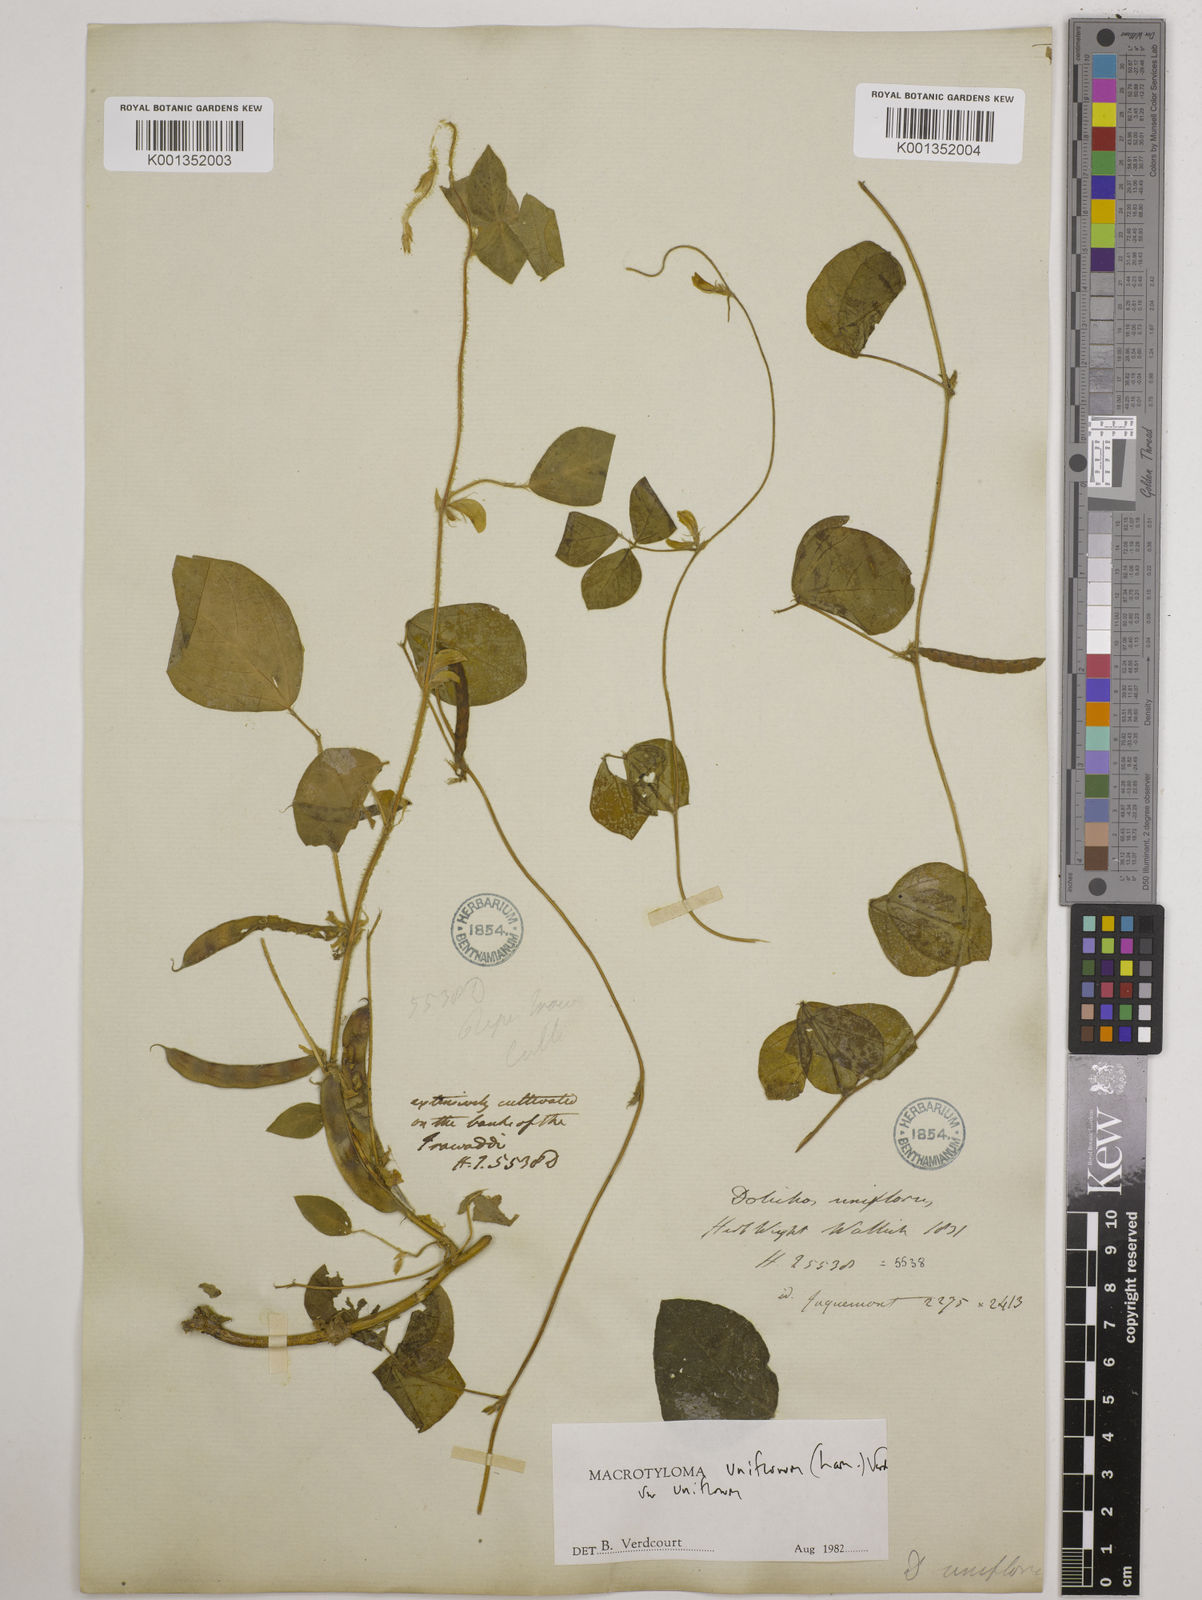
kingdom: Plantae
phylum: Tracheophyta
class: Magnoliopsida
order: Fabales
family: Fabaceae
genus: Macrotyloma
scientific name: Macrotyloma uniflorum
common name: Horse gram
